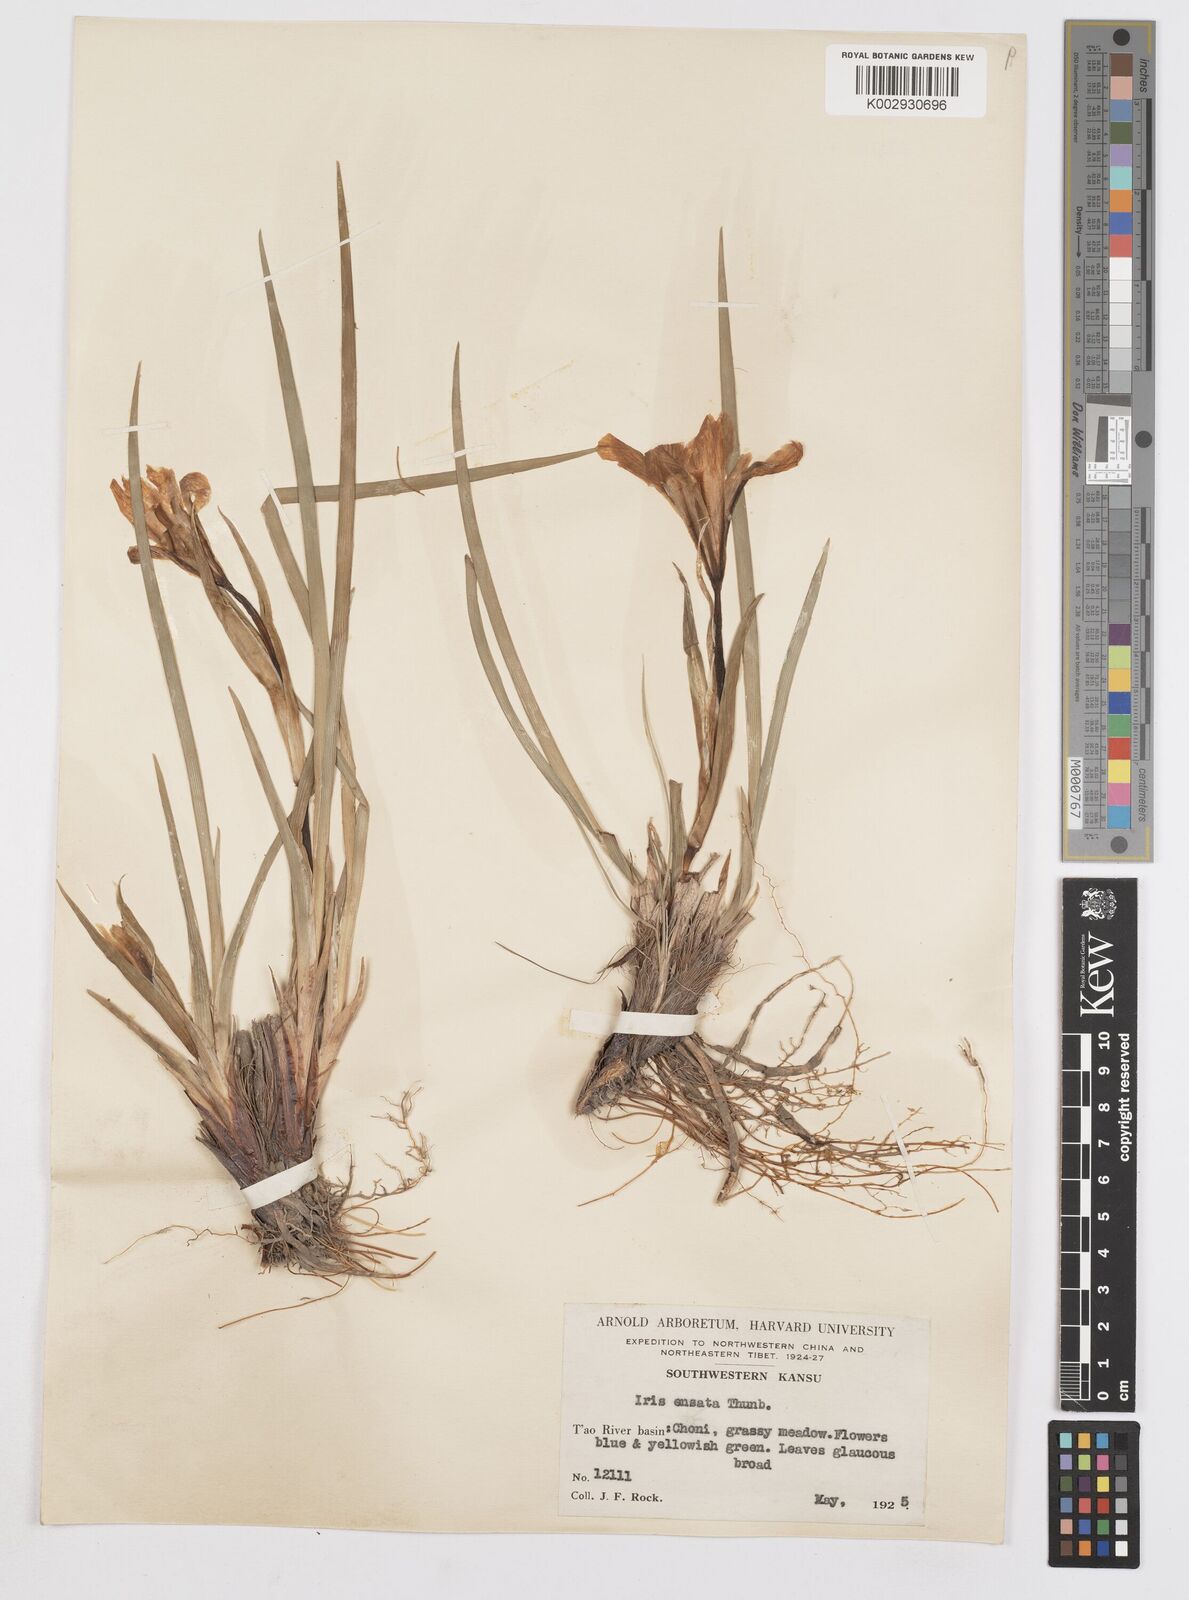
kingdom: Plantae
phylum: Tracheophyta
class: Liliopsida
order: Asparagales
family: Iridaceae
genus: Iris
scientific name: Iris ensata
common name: Beaked iris
